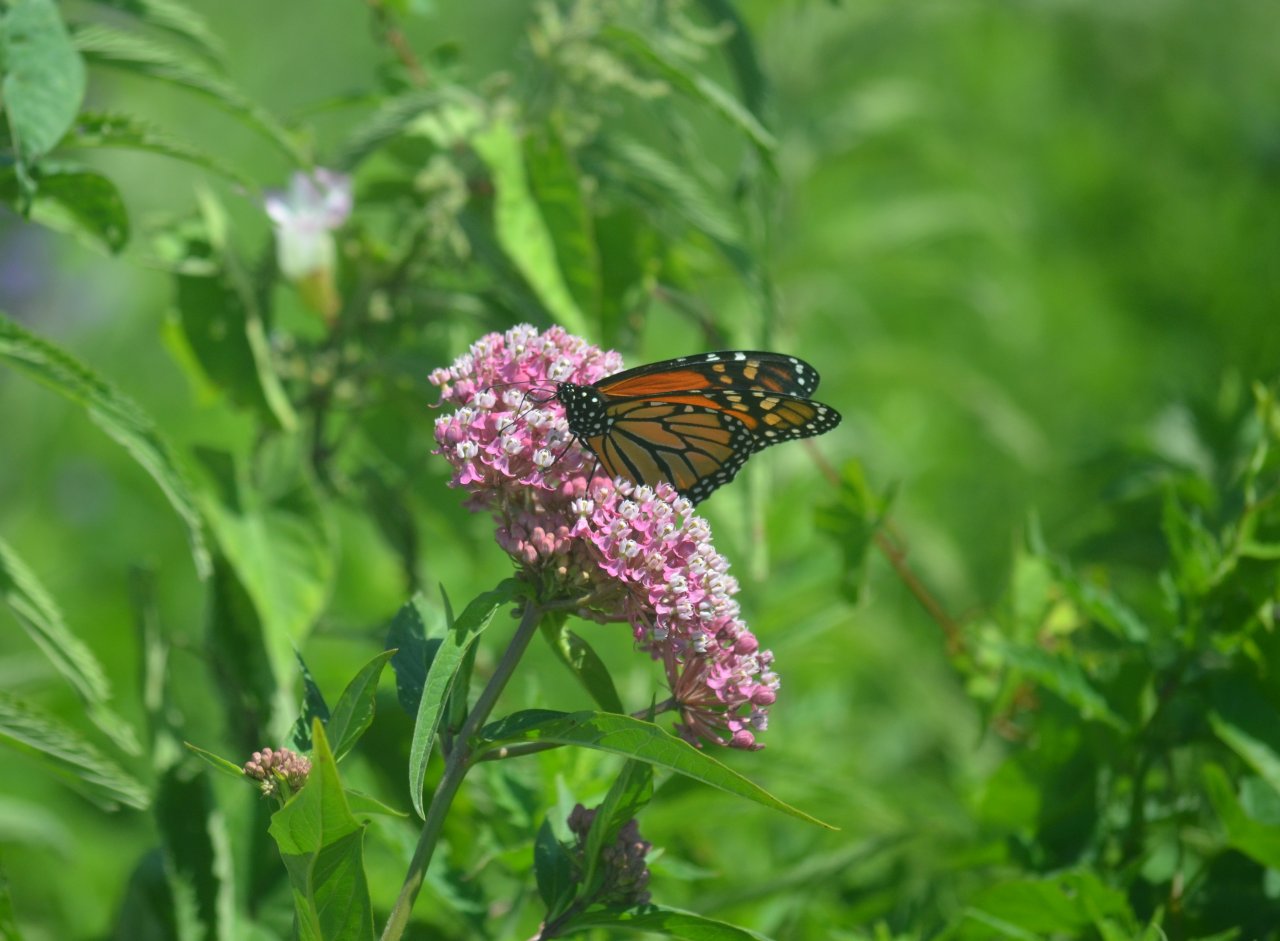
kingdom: Animalia
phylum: Arthropoda
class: Insecta
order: Lepidoptera
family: Nymphalidae
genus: Danaus
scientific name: Danaus plexippus
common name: Monarch
